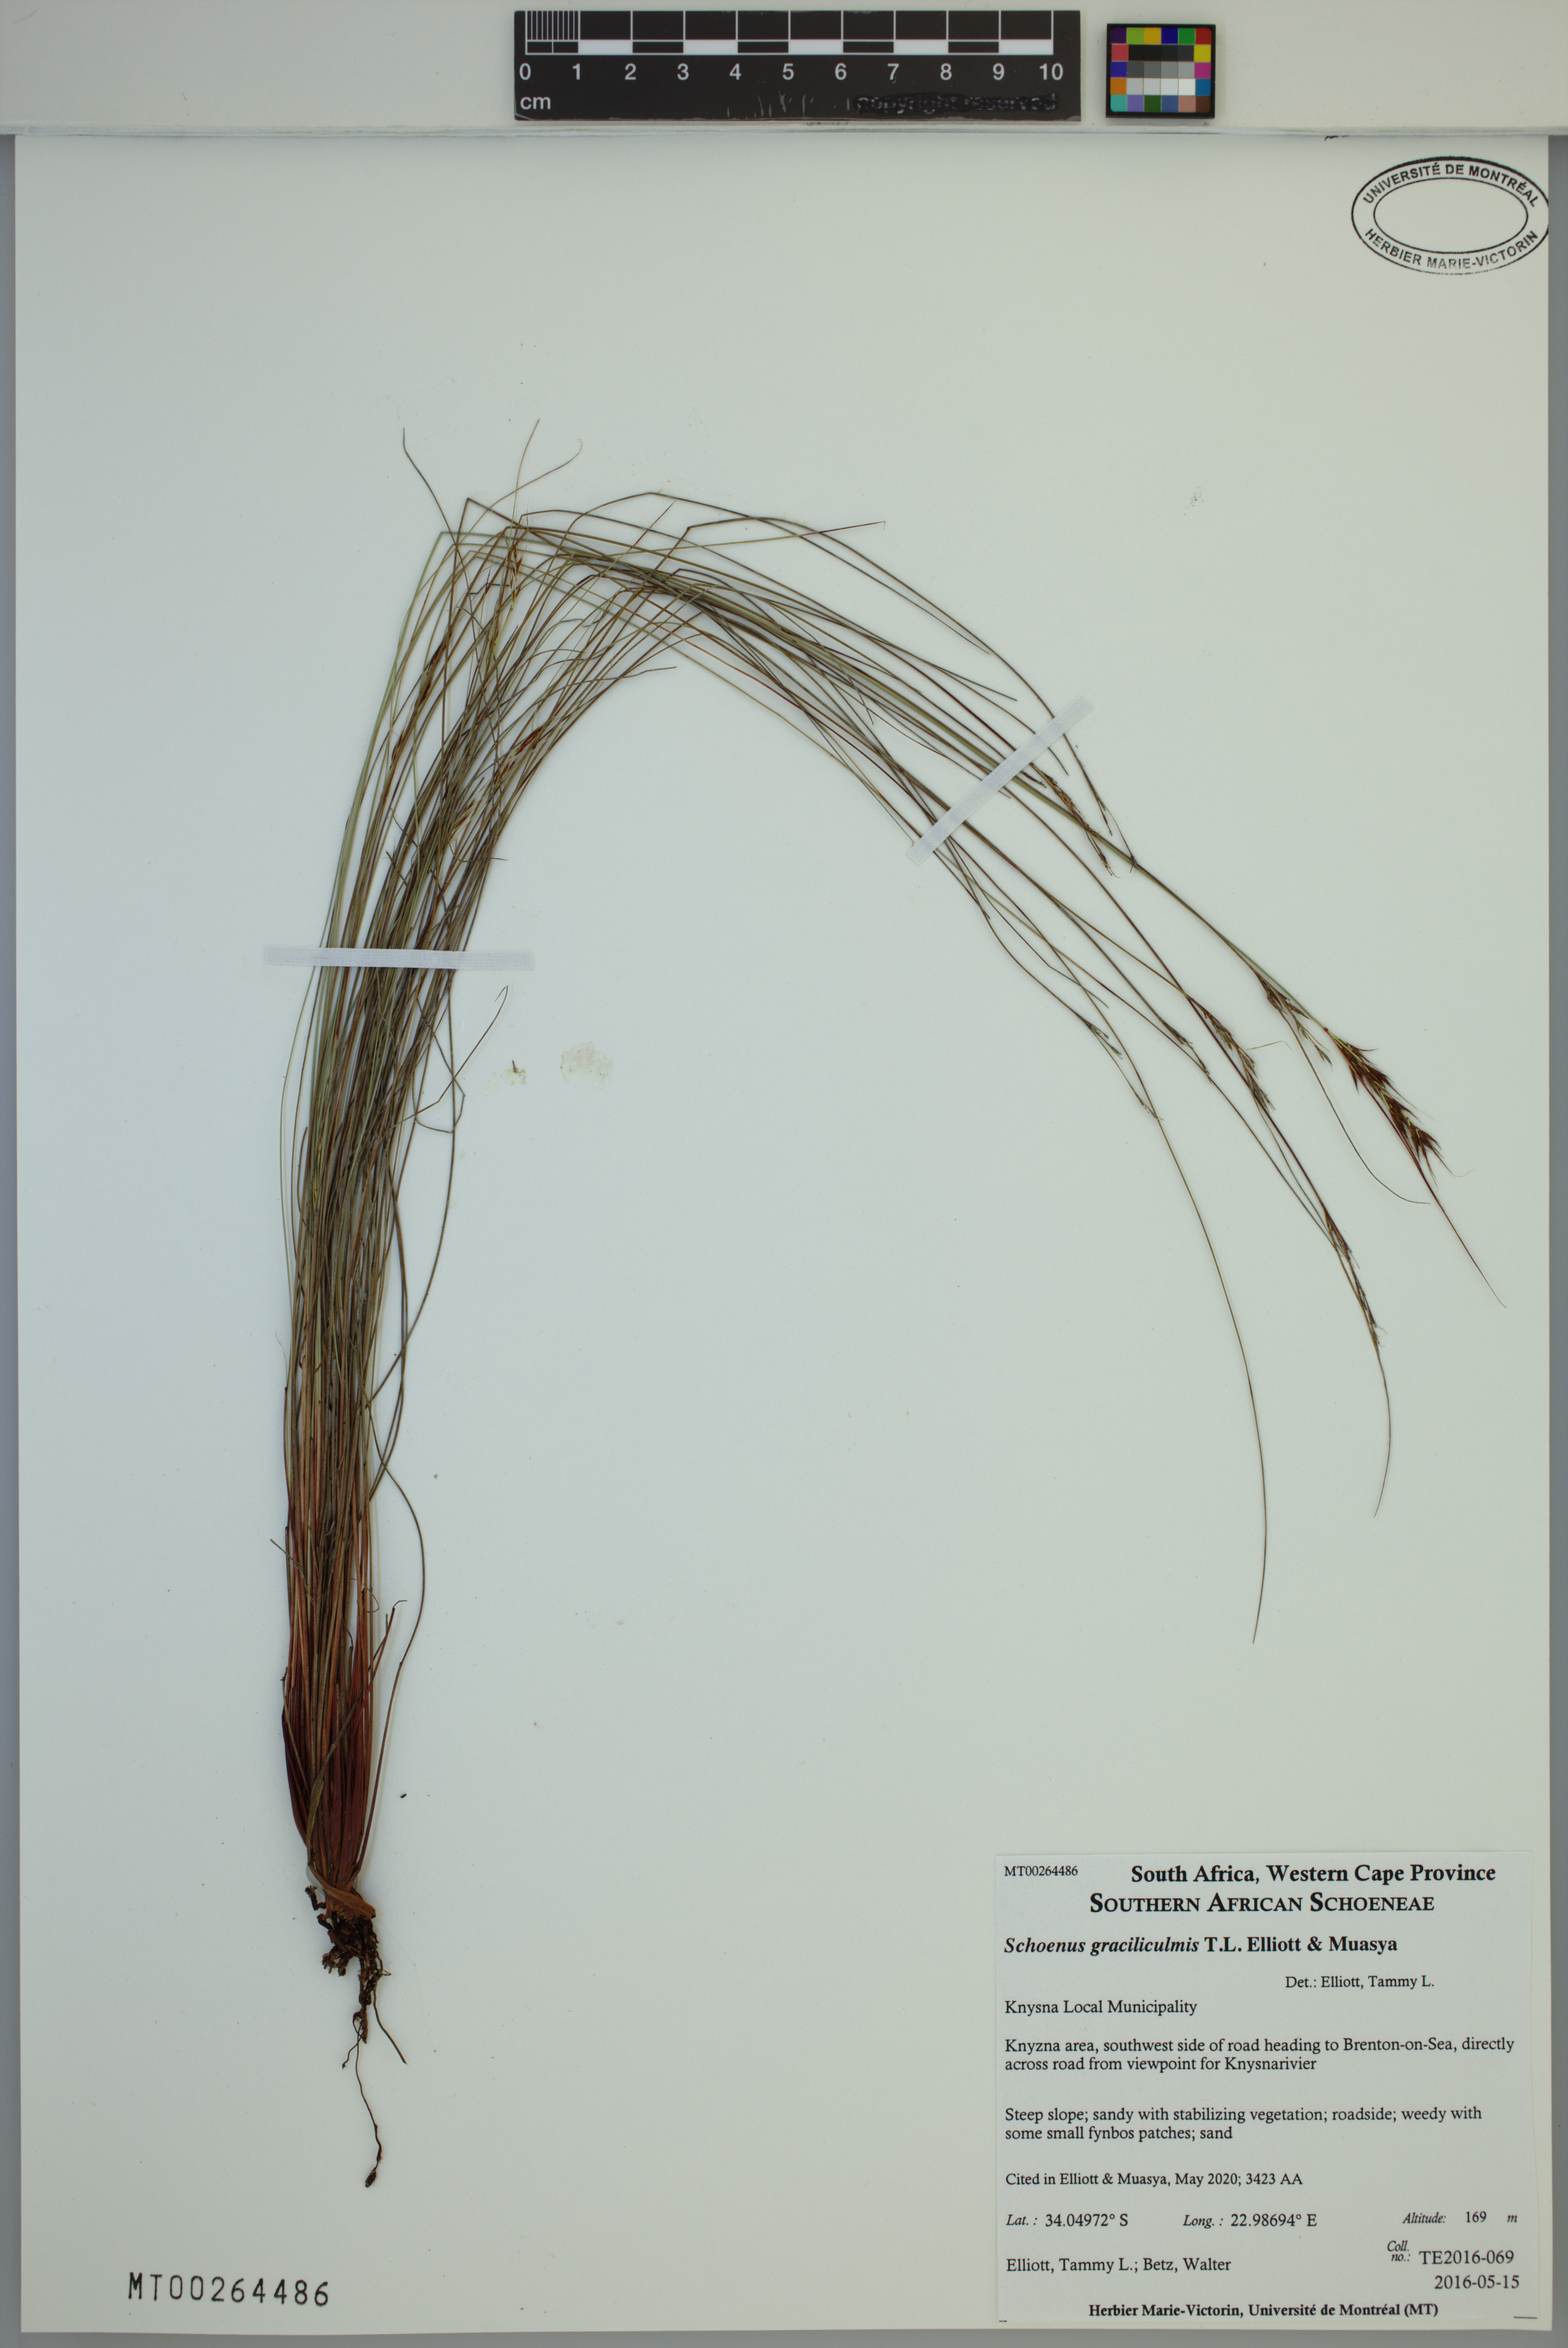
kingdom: Plantae
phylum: Tracheophyta
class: Liliopsida
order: Poales
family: Cyperaceae
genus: Schoenus
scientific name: Schoenus graciliculmis
